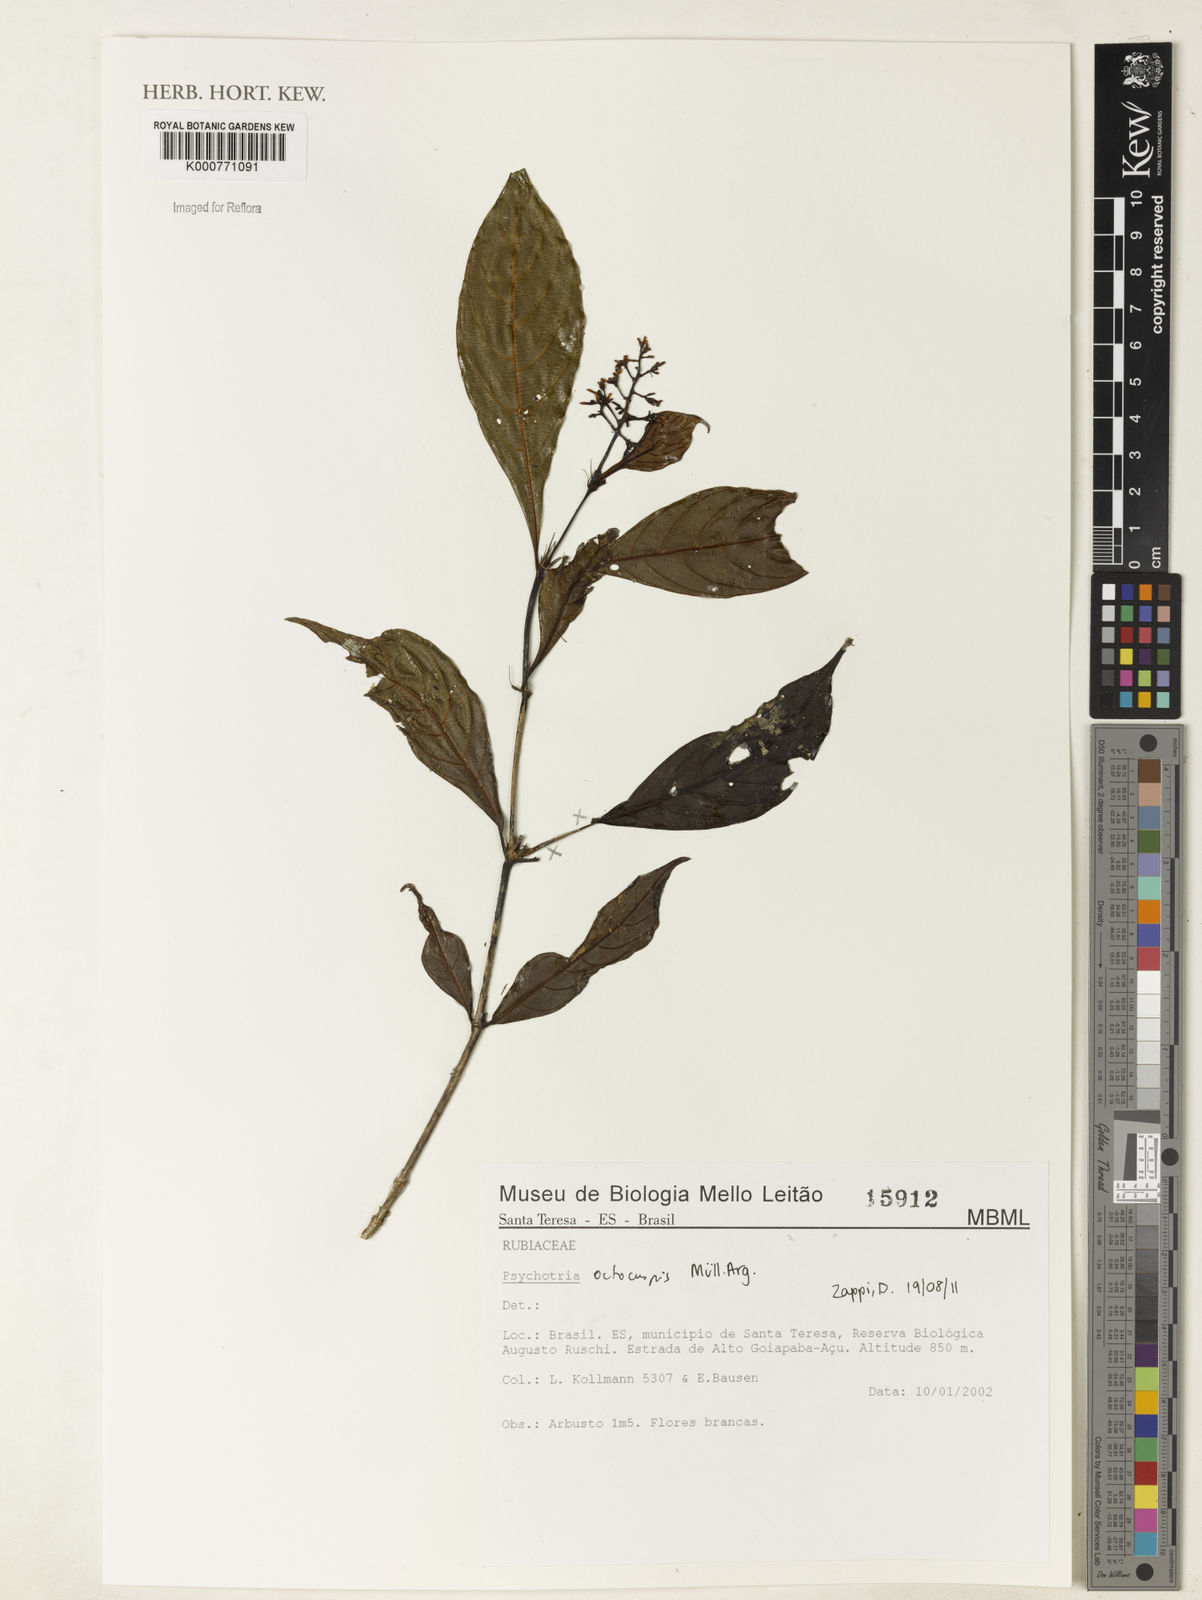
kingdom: Plantae
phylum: Tracheophyta
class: Magnoliopsida
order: Gentianales
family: Rubiaceae
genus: Psychotria
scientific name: Psychotria
